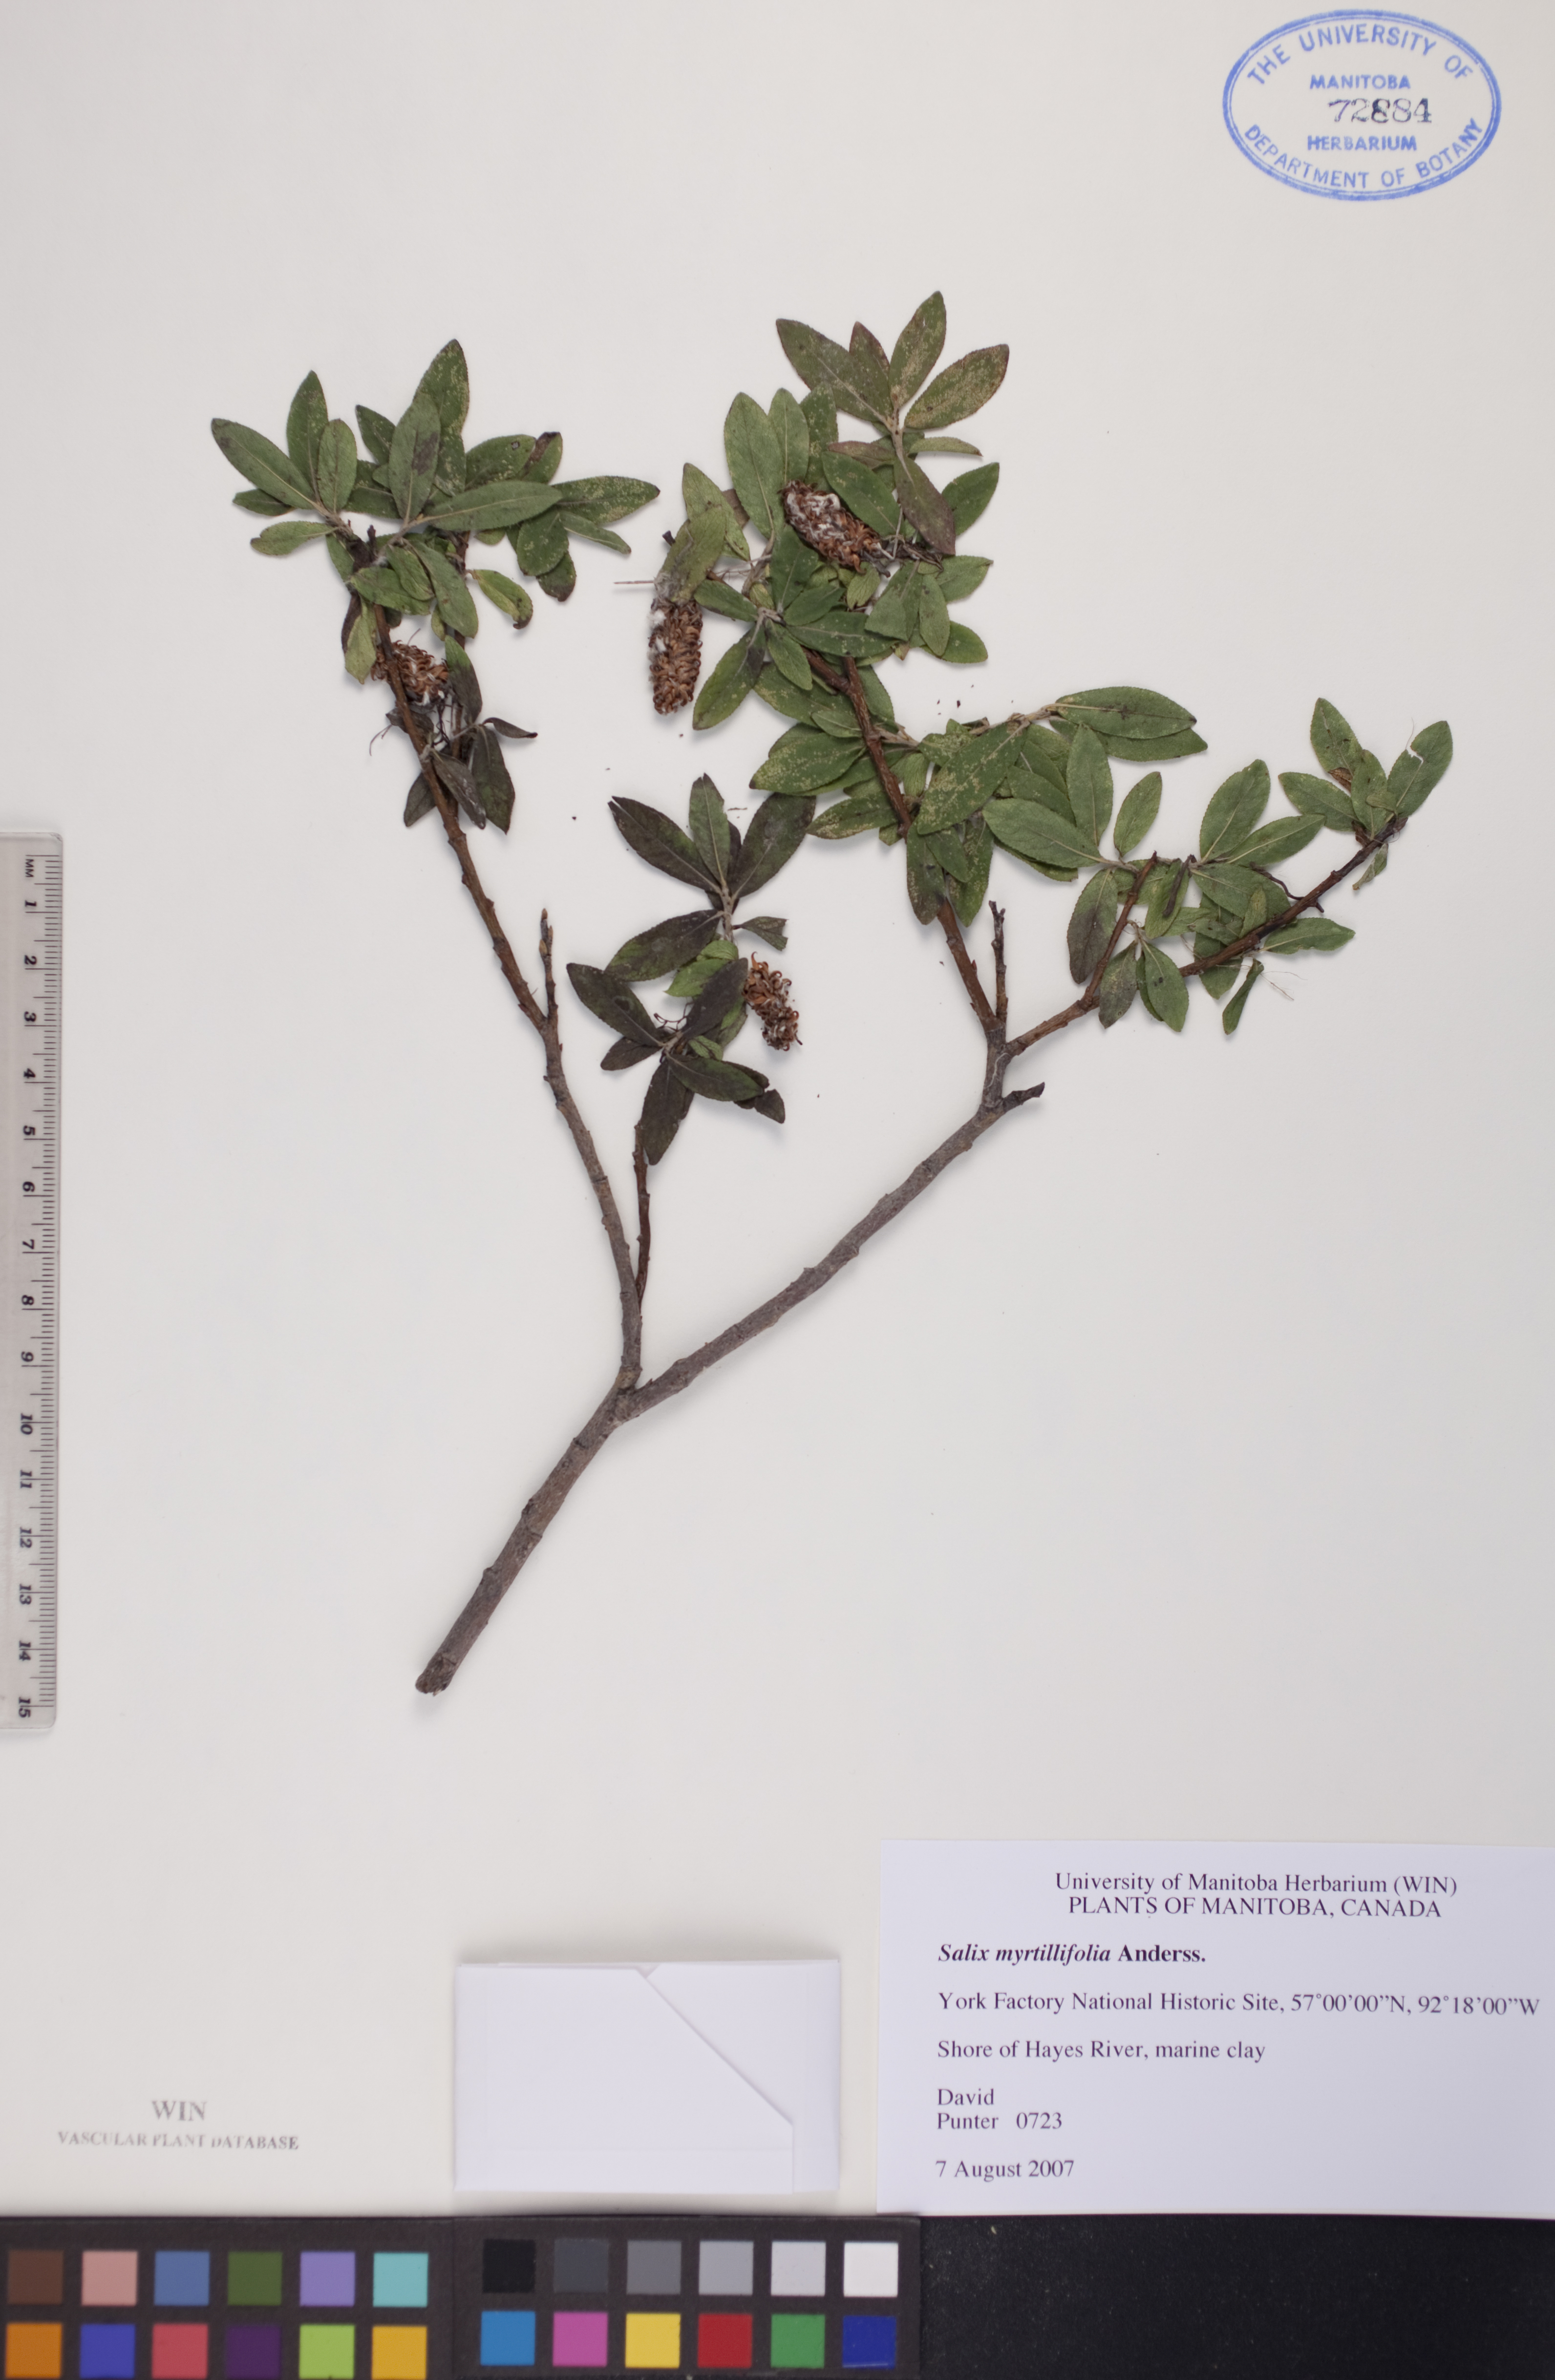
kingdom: Plantae
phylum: Tracheophyta
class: Magnoliopsida
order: Malpighiales
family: Salicaceae
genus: Salix
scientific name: Salix myrtillifolia
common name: Bilberry willow
